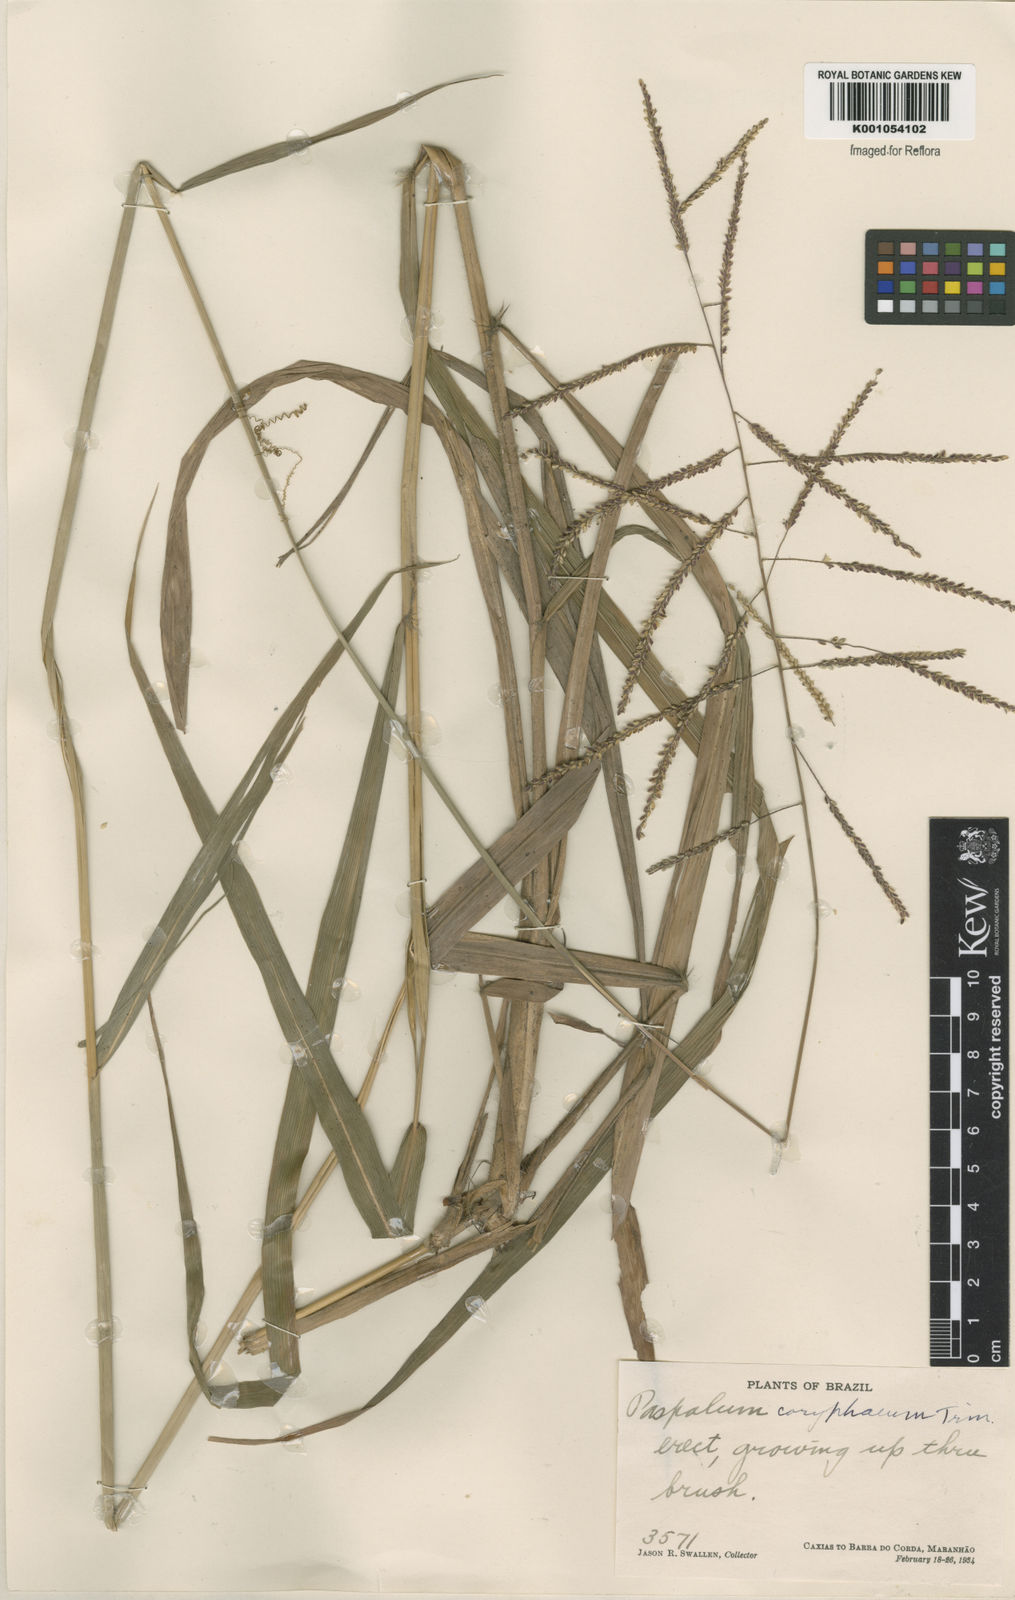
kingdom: Plantae
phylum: Tracheophyta
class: Liliopsida
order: Poales
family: Poaceae
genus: Paspalum
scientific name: Paspalum coryphaeum
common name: Emperor crowngrass
